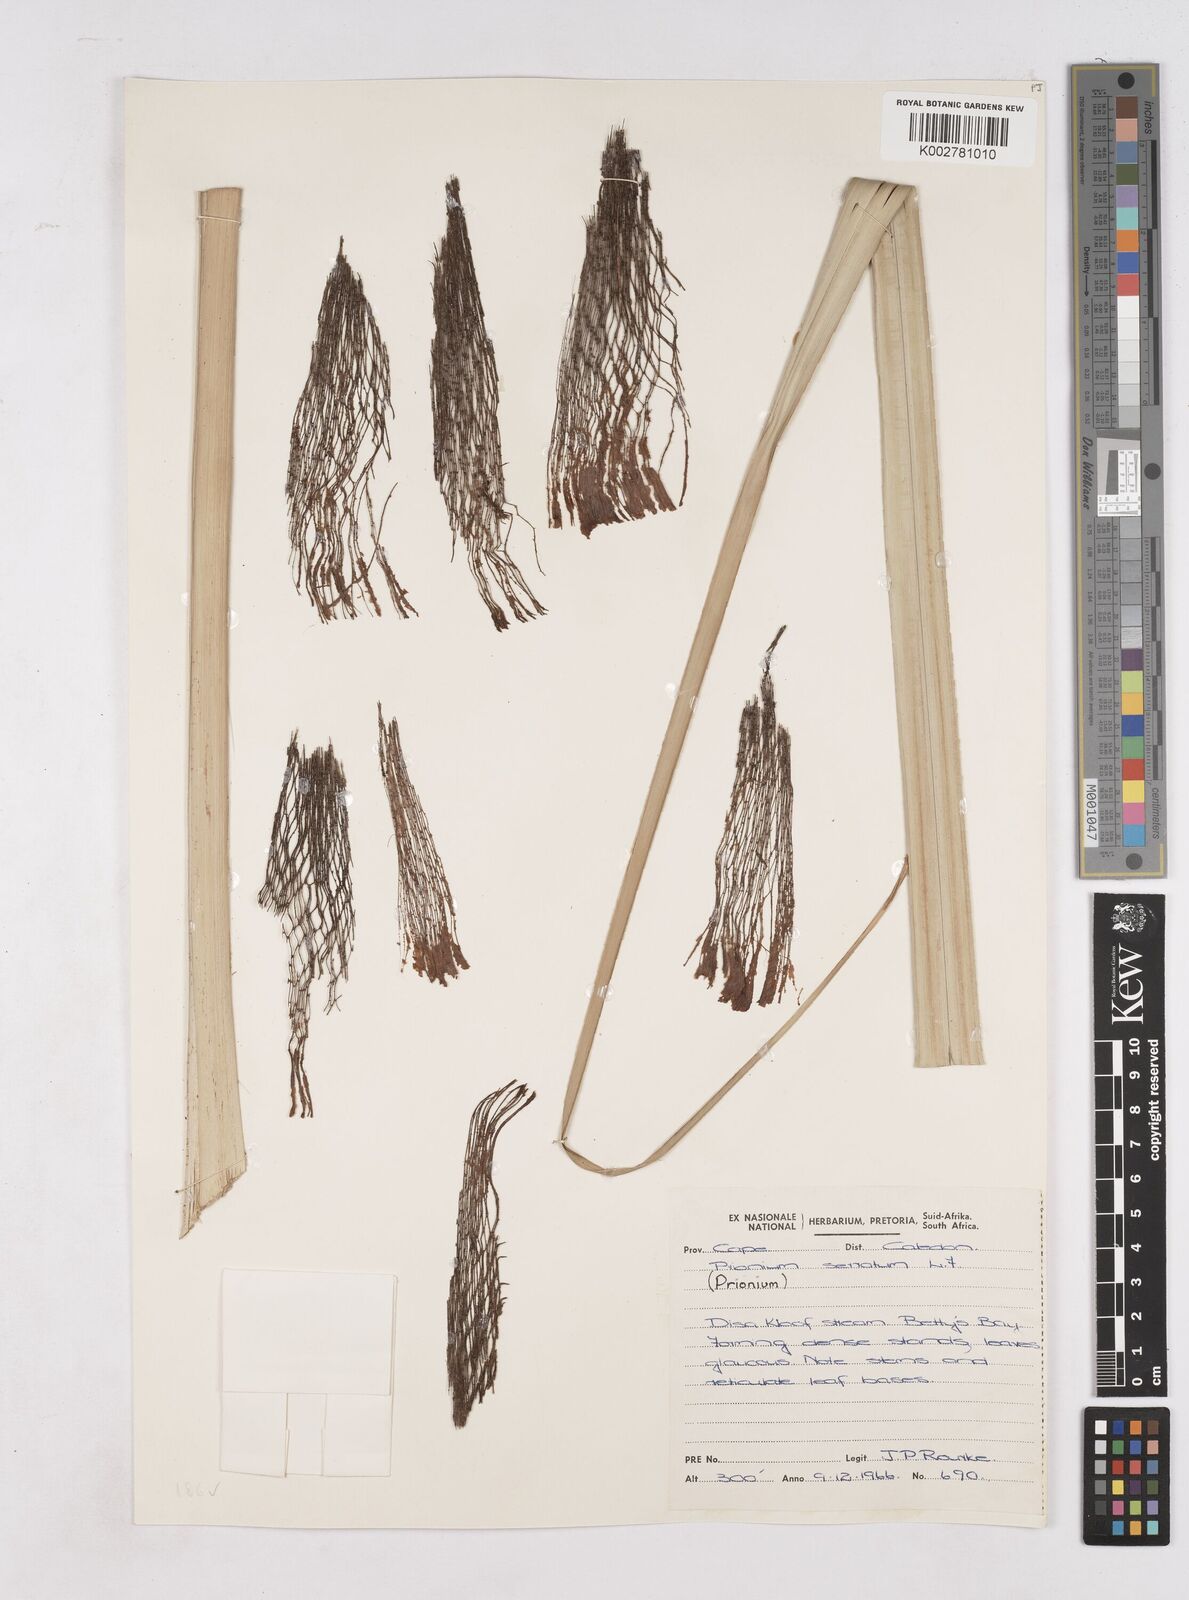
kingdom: Plantae
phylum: Tracheophyta
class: Liliopsida
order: Poales
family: Thurniaceae
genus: Prionium
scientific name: Prionium serratum
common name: Palmiet
